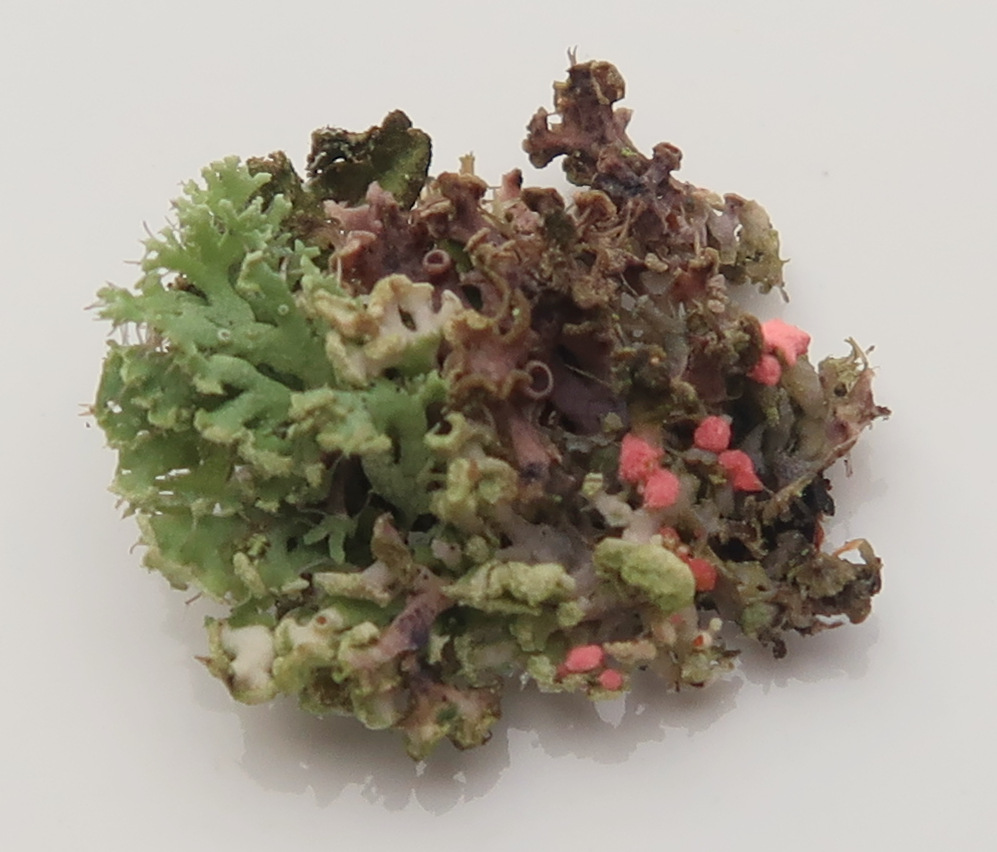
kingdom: Fungi
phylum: Ascomycota
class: Sordariomycetes
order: Hypocreales
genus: Illosporiopsis
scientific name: Illosporiopsis christiansenii
